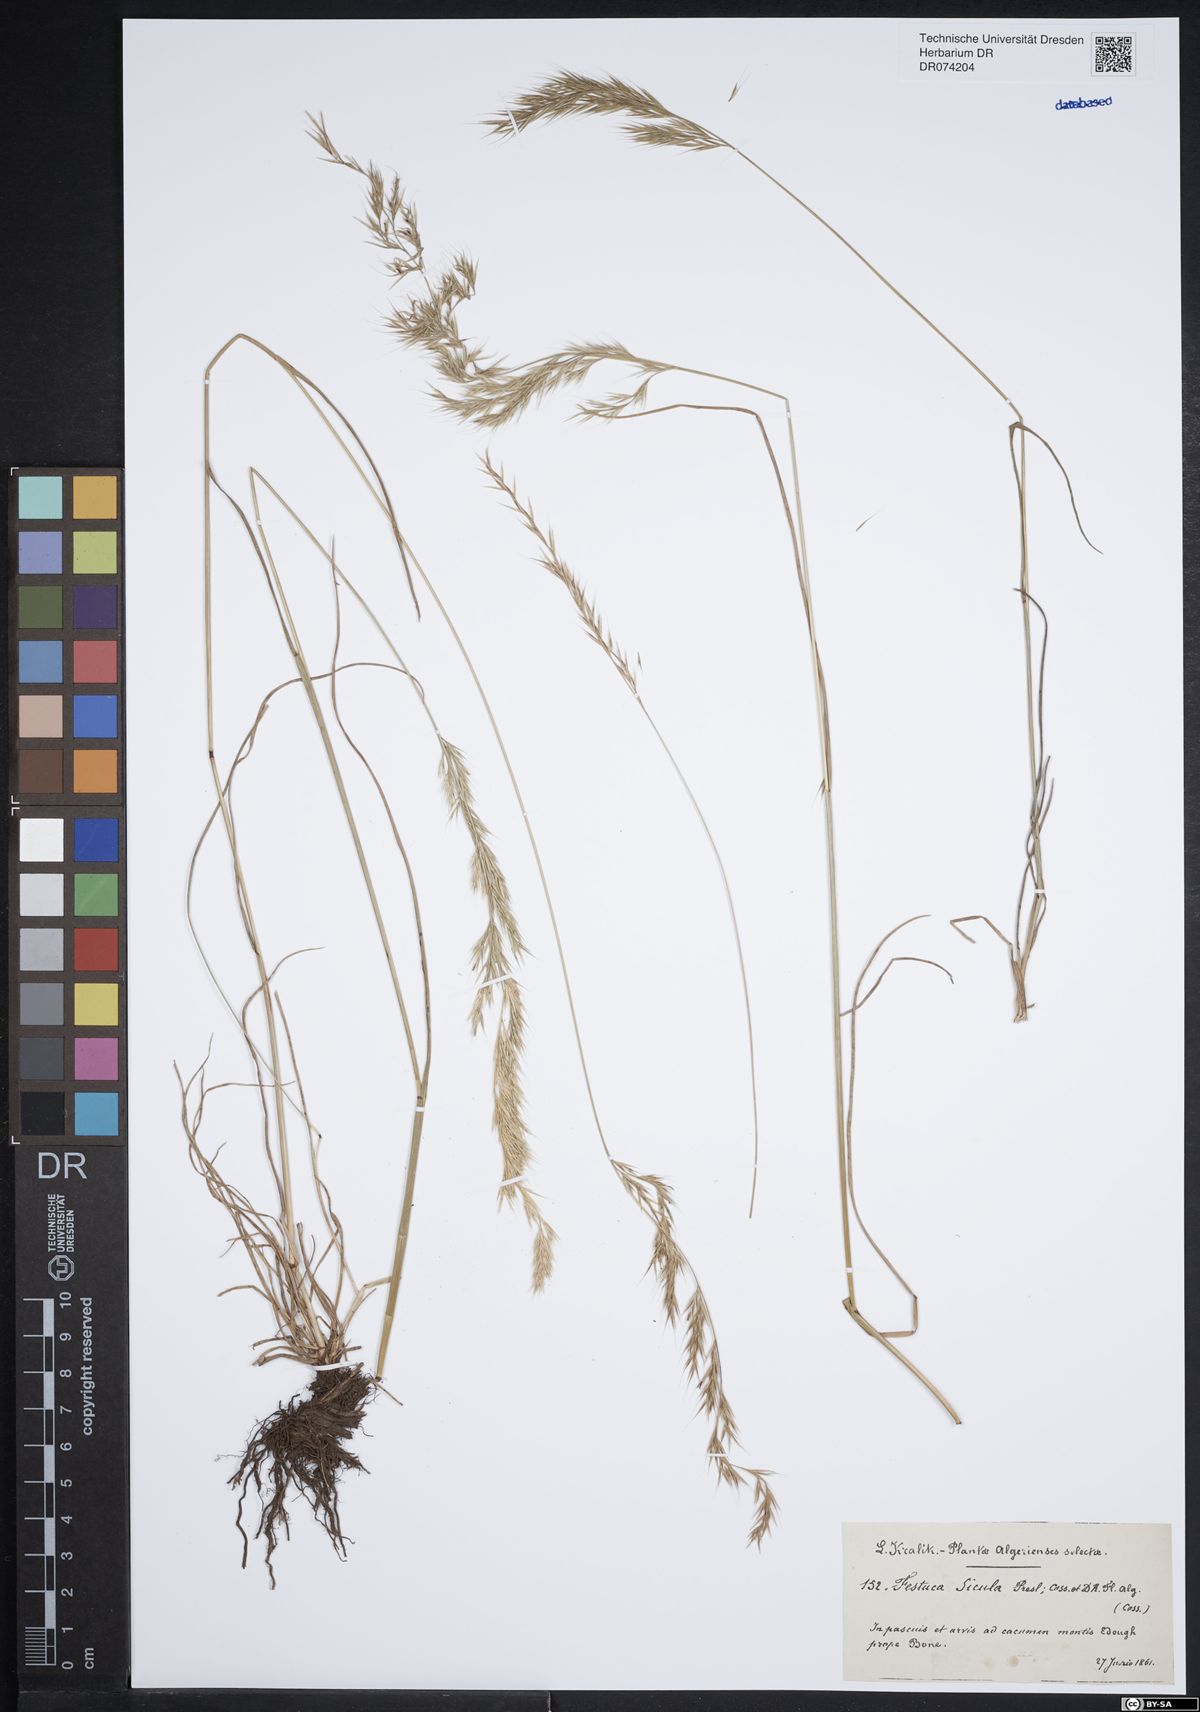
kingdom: Plantae
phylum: Tracheophyta
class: Liliopsida
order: Poales
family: Poaceae
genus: Festuca
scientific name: Festuca sicula
